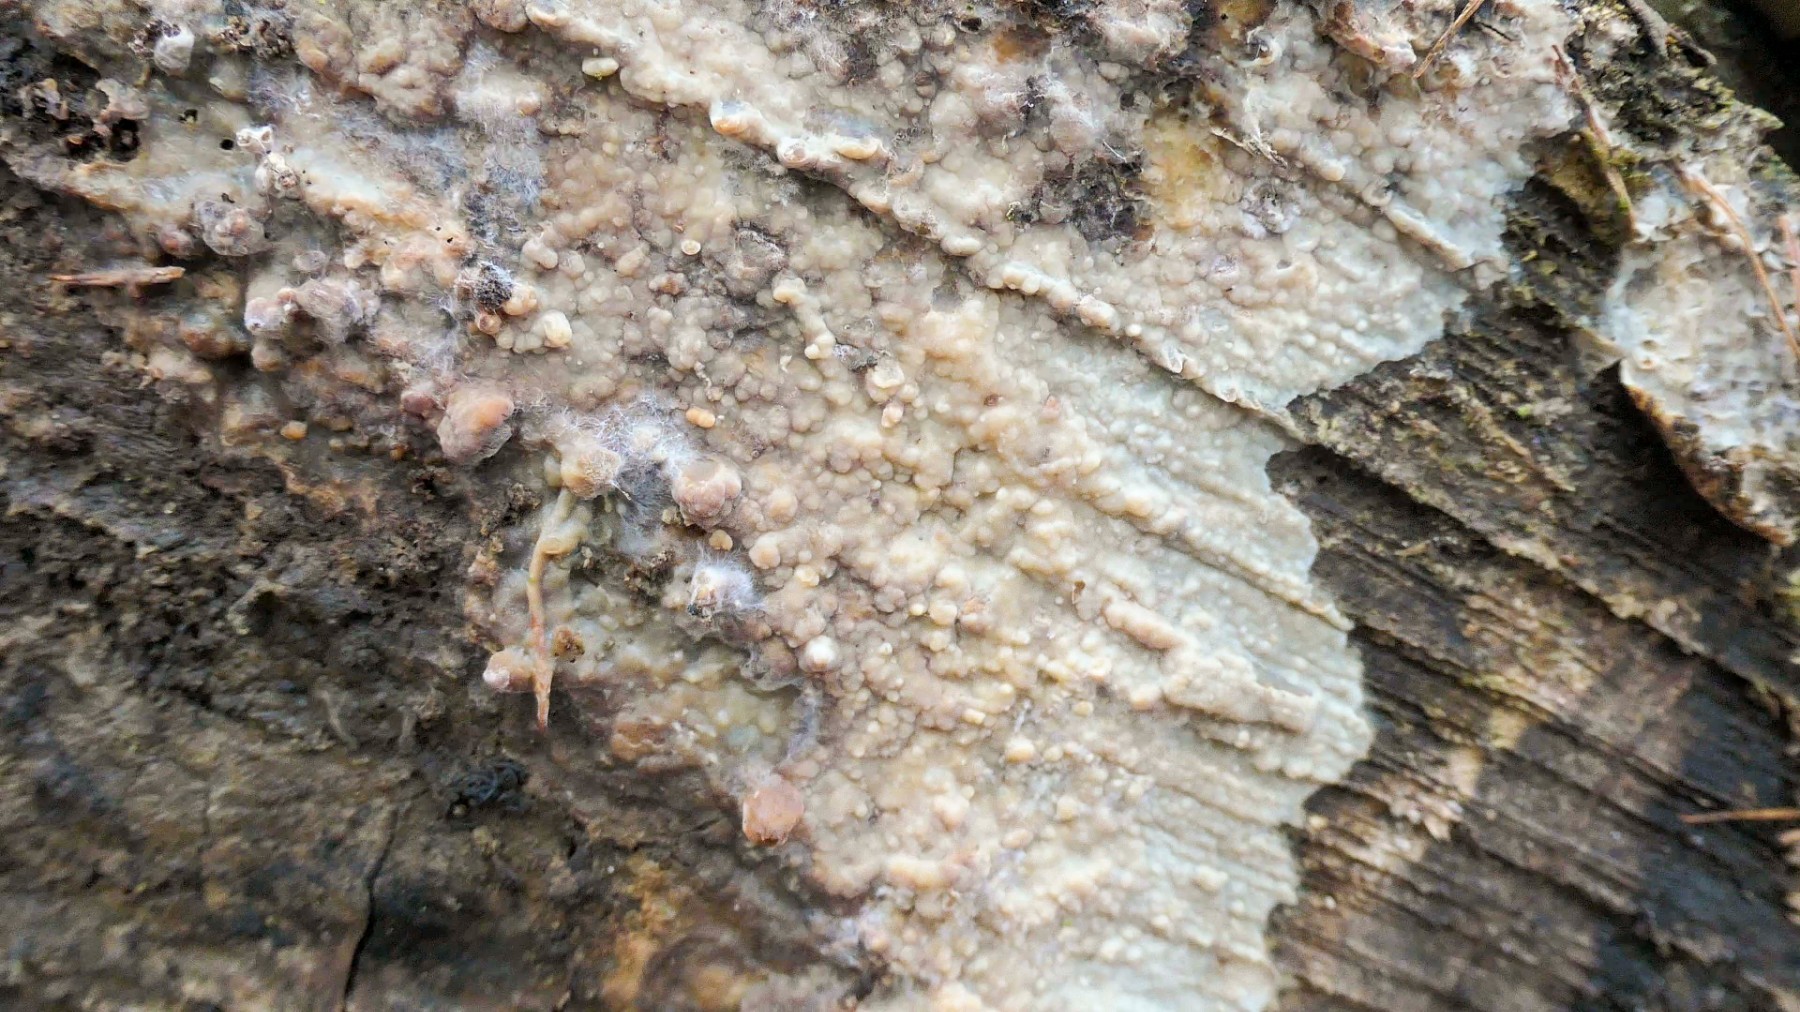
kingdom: Fungi
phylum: Basidiomycota
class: Agaricomycetes
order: Polyporales
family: Phanerochaetaceae
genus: Phlebiopsis
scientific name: Phlebiopsis gigantea
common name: kæmpebarksvamp
